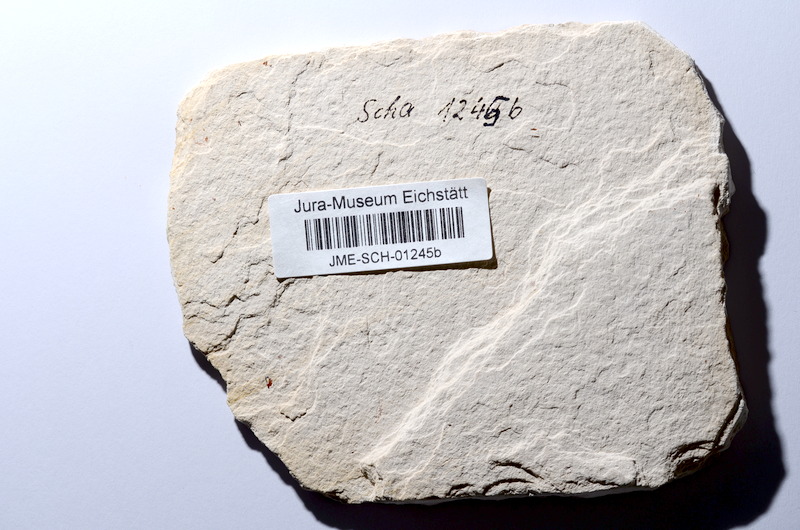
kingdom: Animalia
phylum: Chordata
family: Ascalaboidae
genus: Tharsis
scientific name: Tharsis dubius
